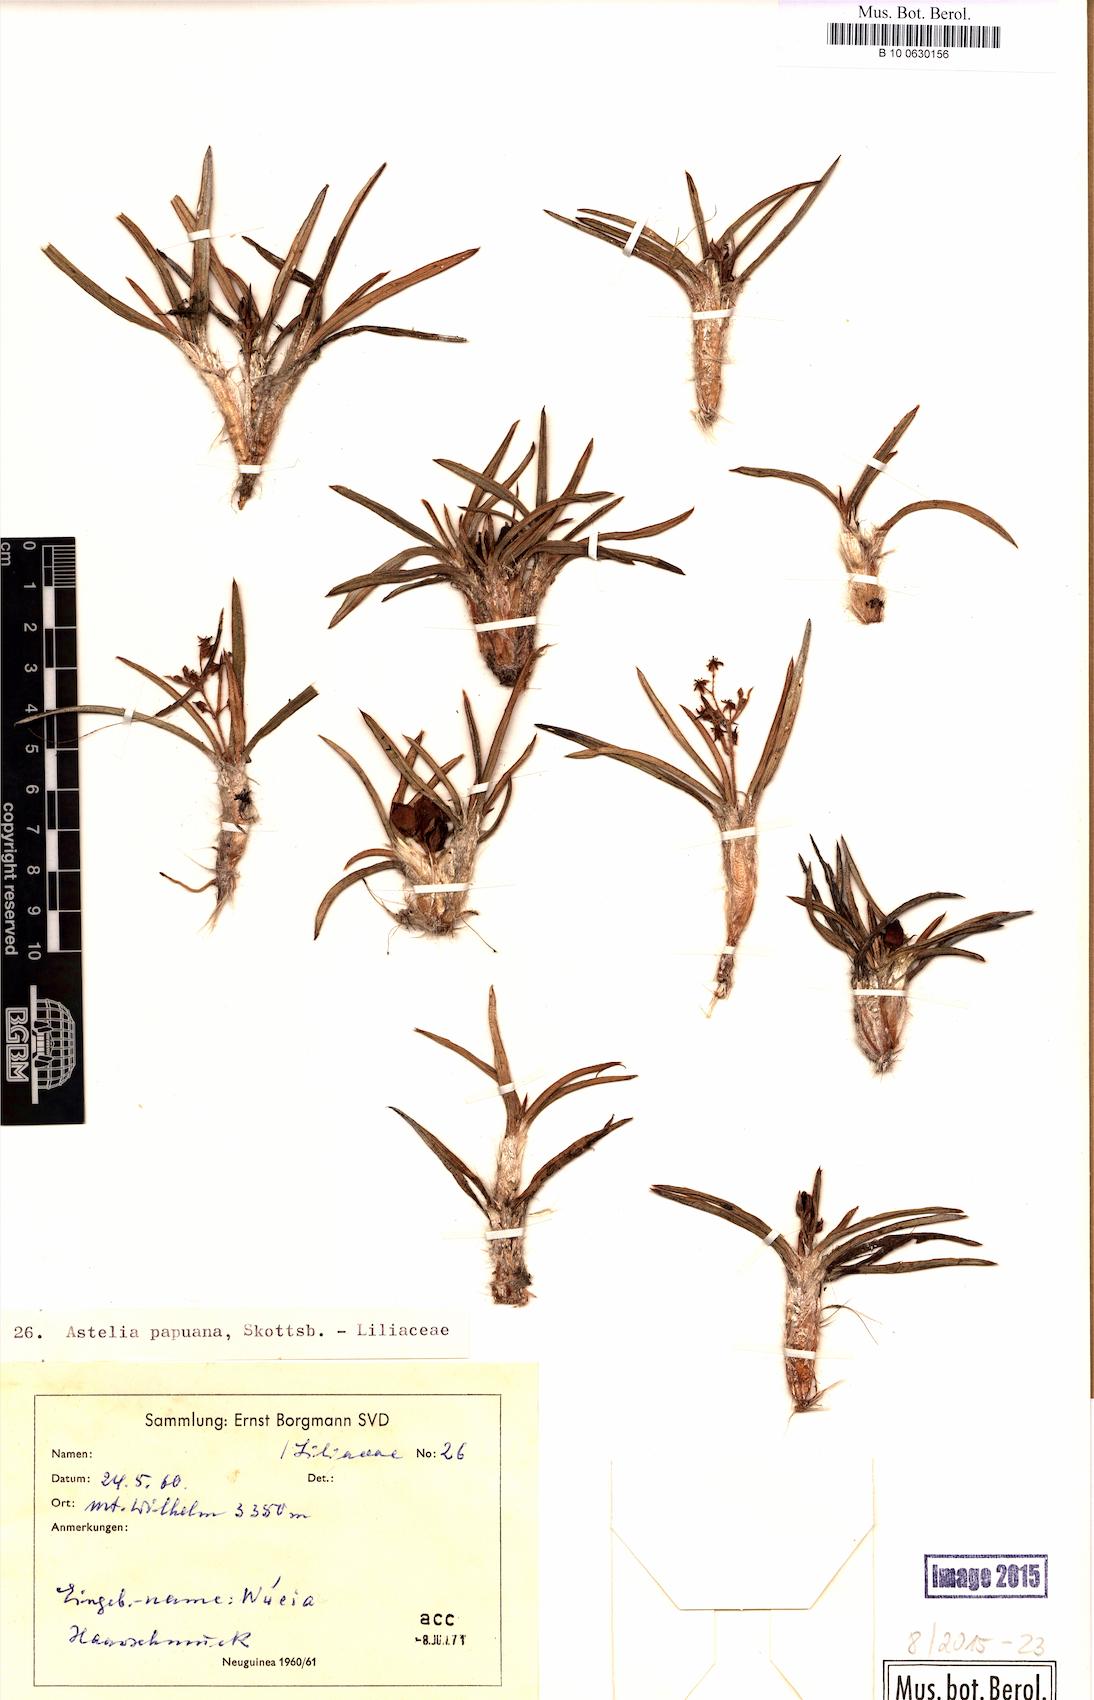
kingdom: Plantae
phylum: Tracheophyta
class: Liliopsida
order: Asparagales
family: Asteliaceae
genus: Astelia
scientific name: Astelia papuana
